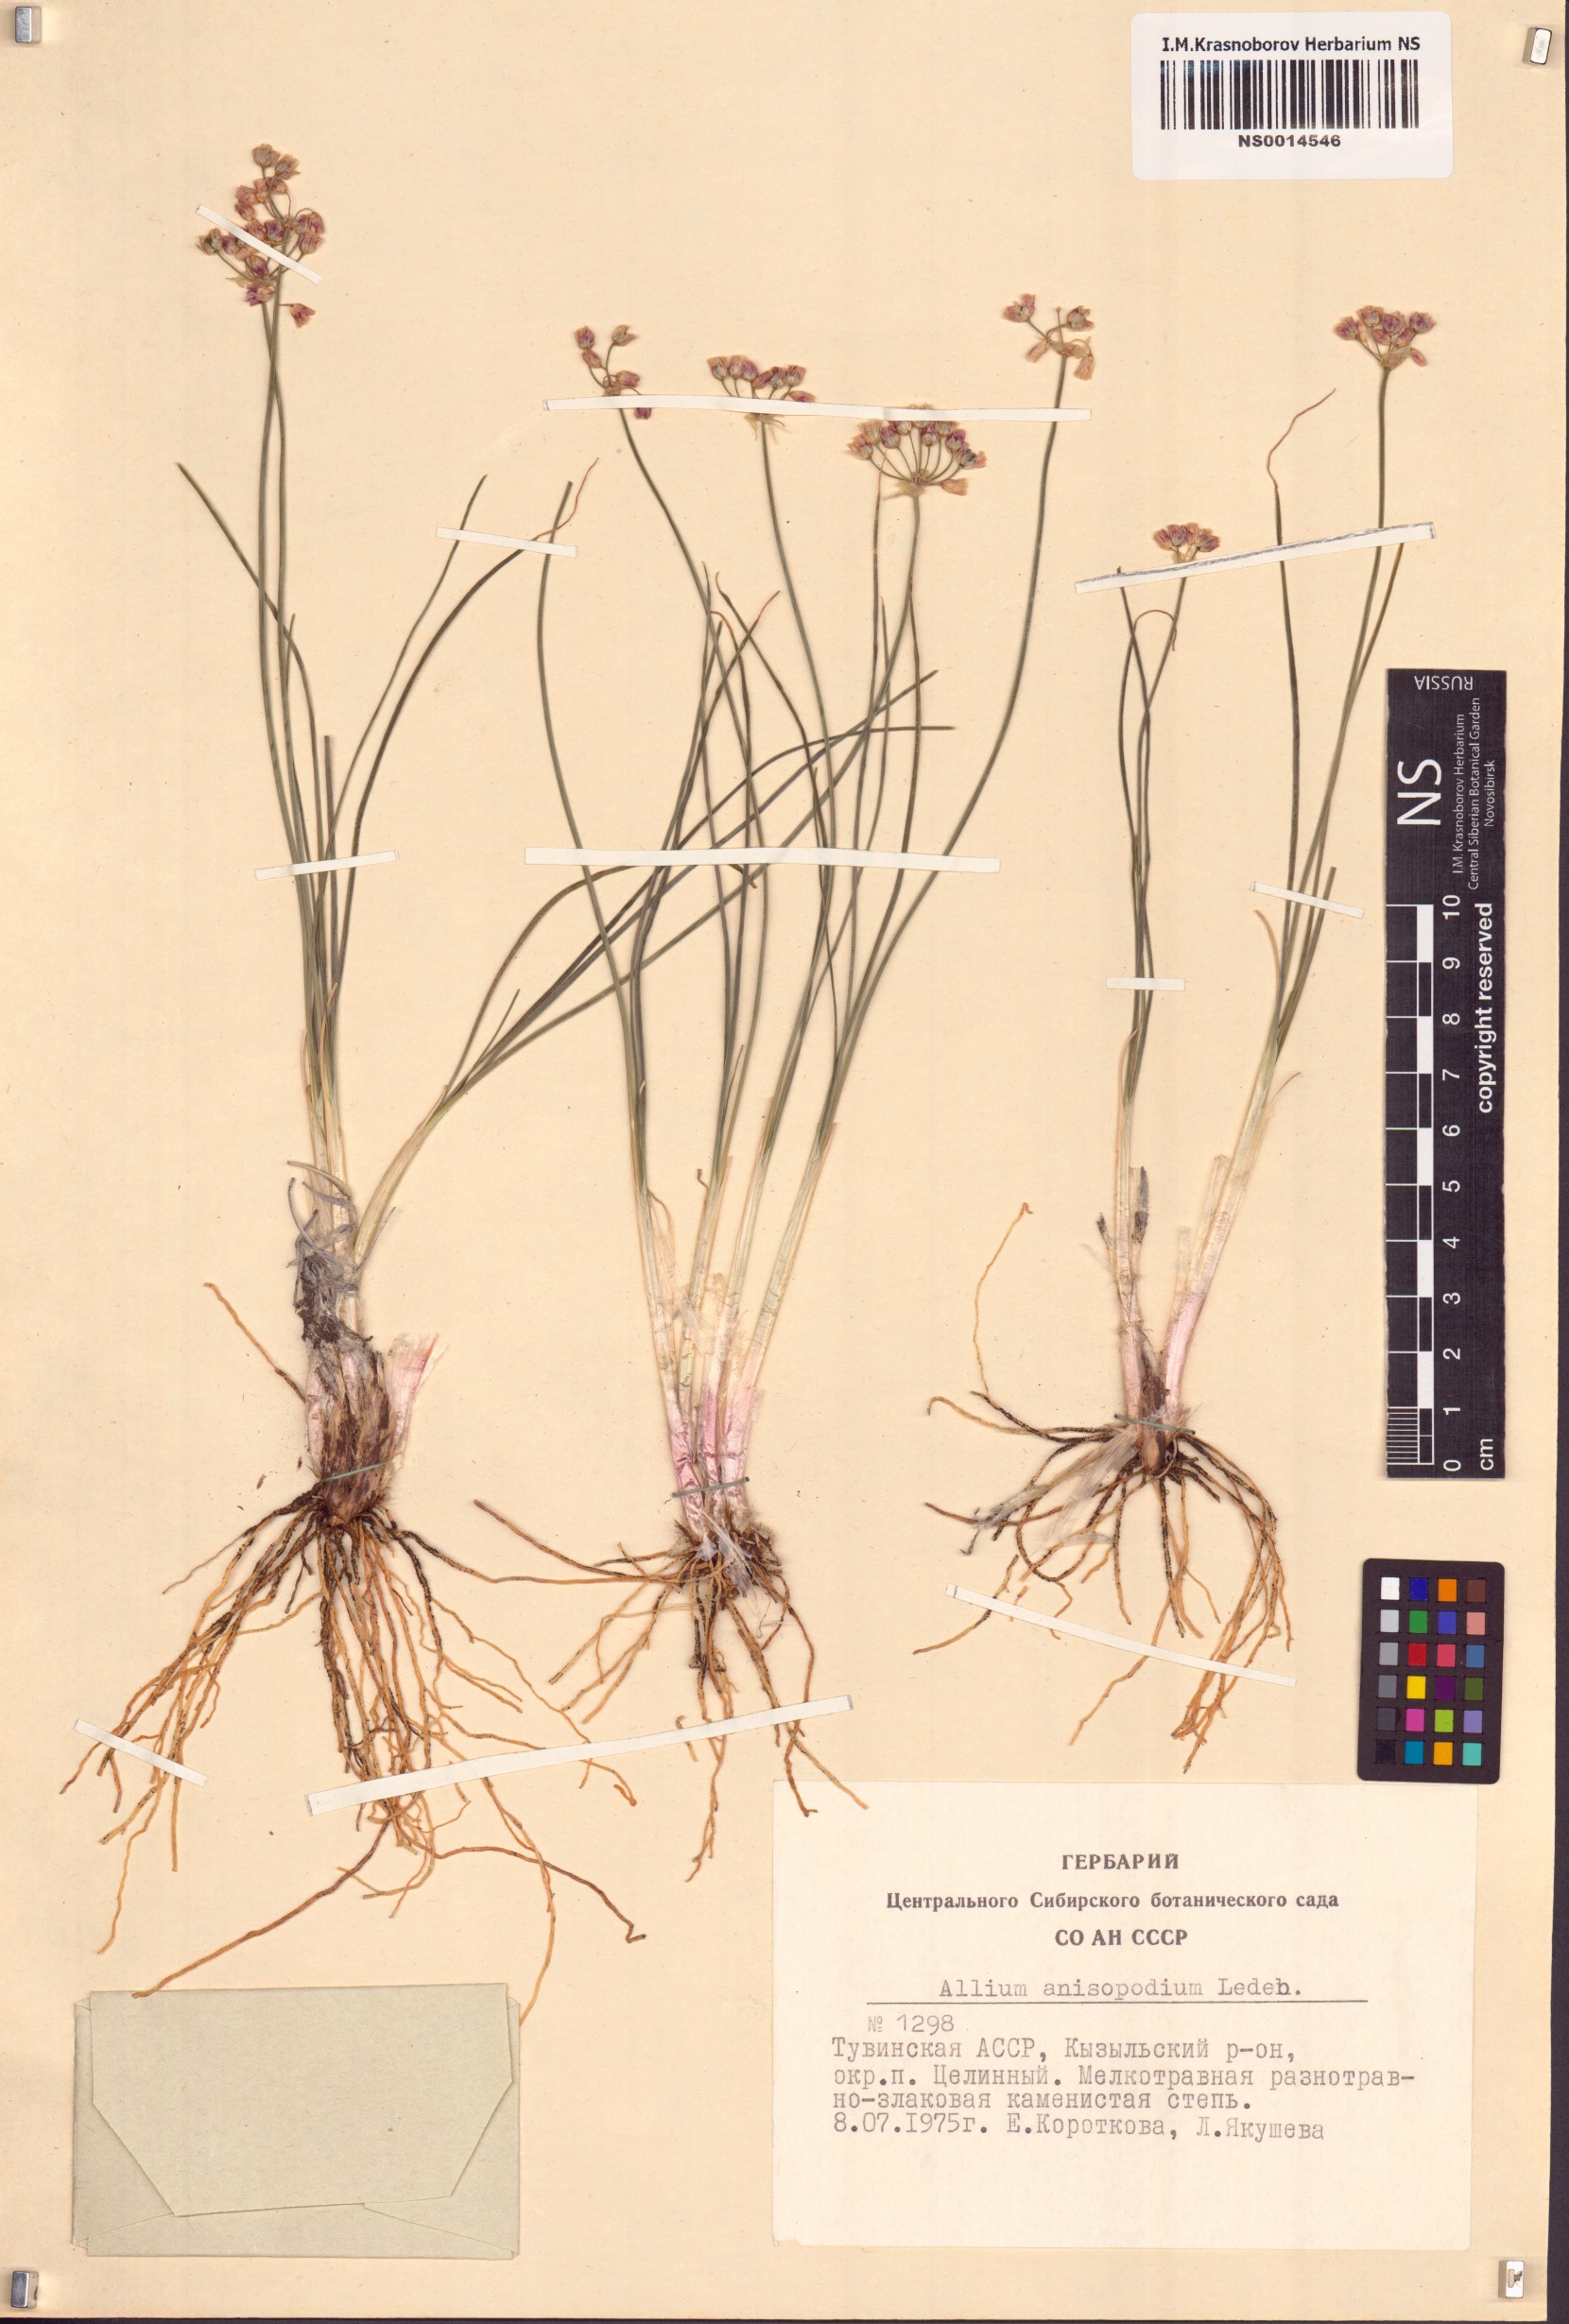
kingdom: Plantae
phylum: Tracheophyta
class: Liliopsida
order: Asparagales
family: Amaryllidaceae
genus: Allium
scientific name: Allium anisopodium
